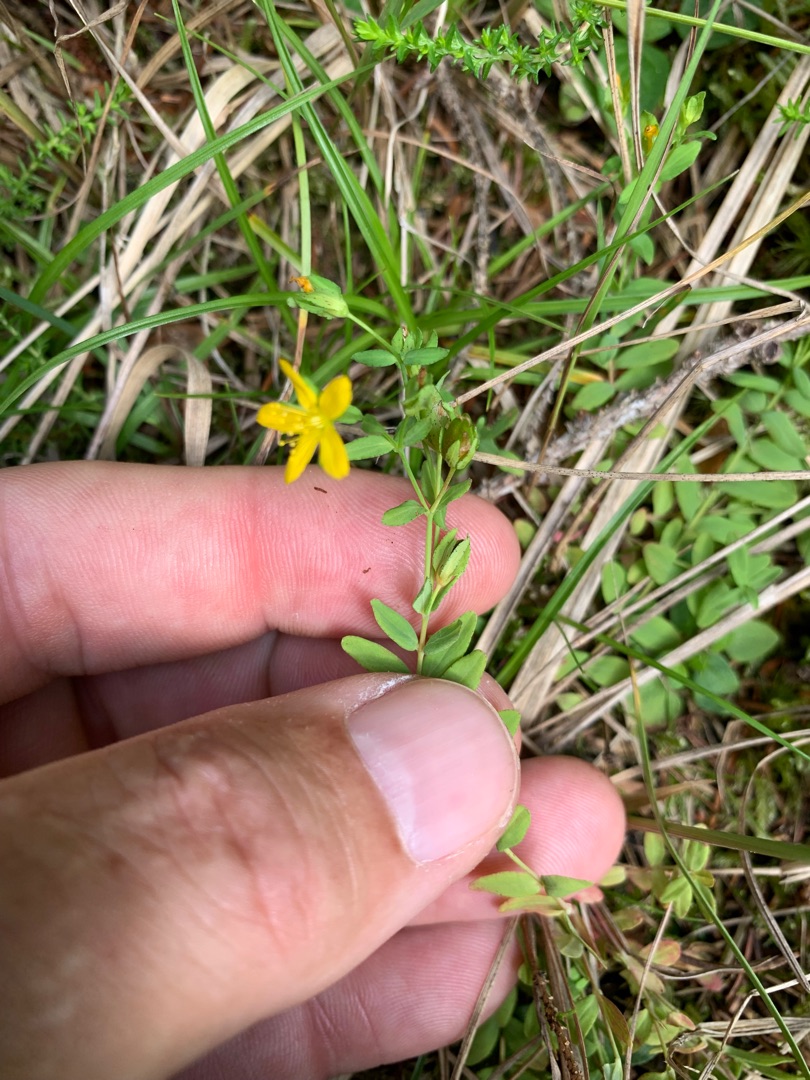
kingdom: Plantae
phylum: Tracheophyta
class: Magnoliopsida
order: Malpighiales
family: Hypericaceae
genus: Hypericum
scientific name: Hypericum humifusum
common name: Dværg-perikon
